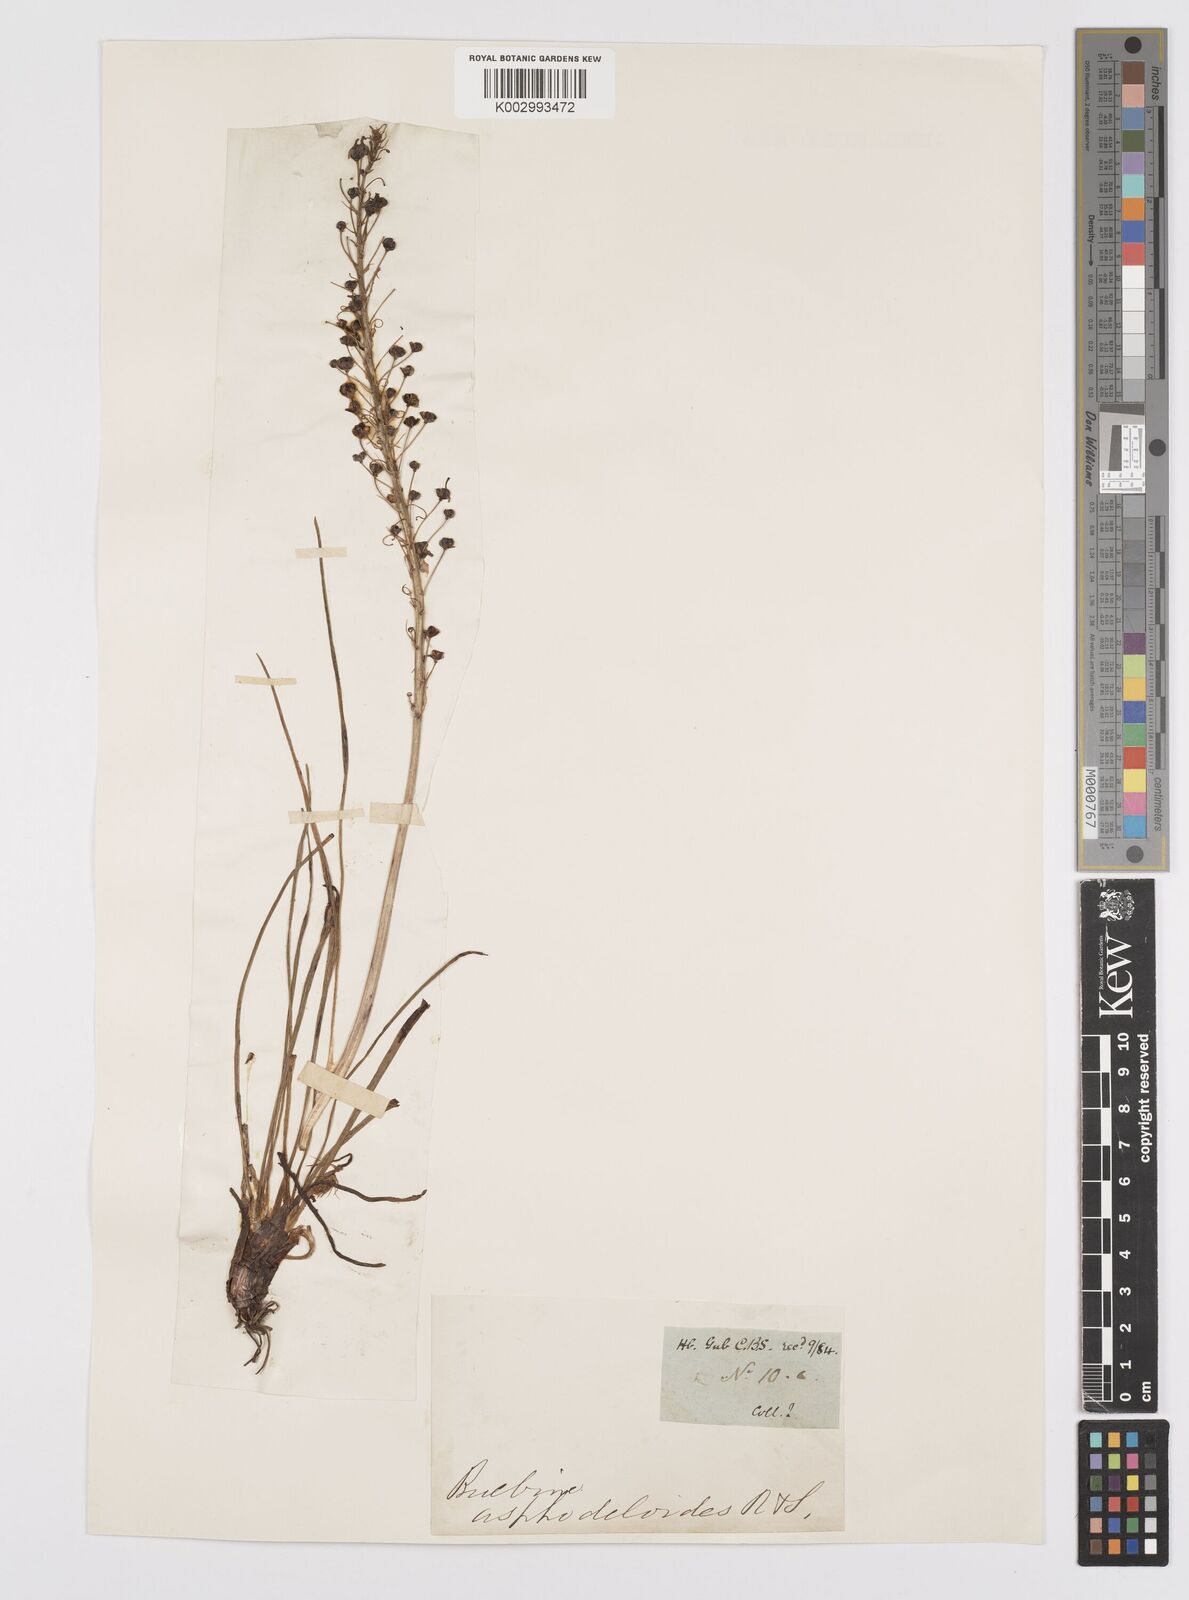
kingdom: Plantae
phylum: Tracheophyta
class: Liliopsida
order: Asparagales
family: Asphodelaceae
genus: Bulbine
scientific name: Bulbine lagopus
